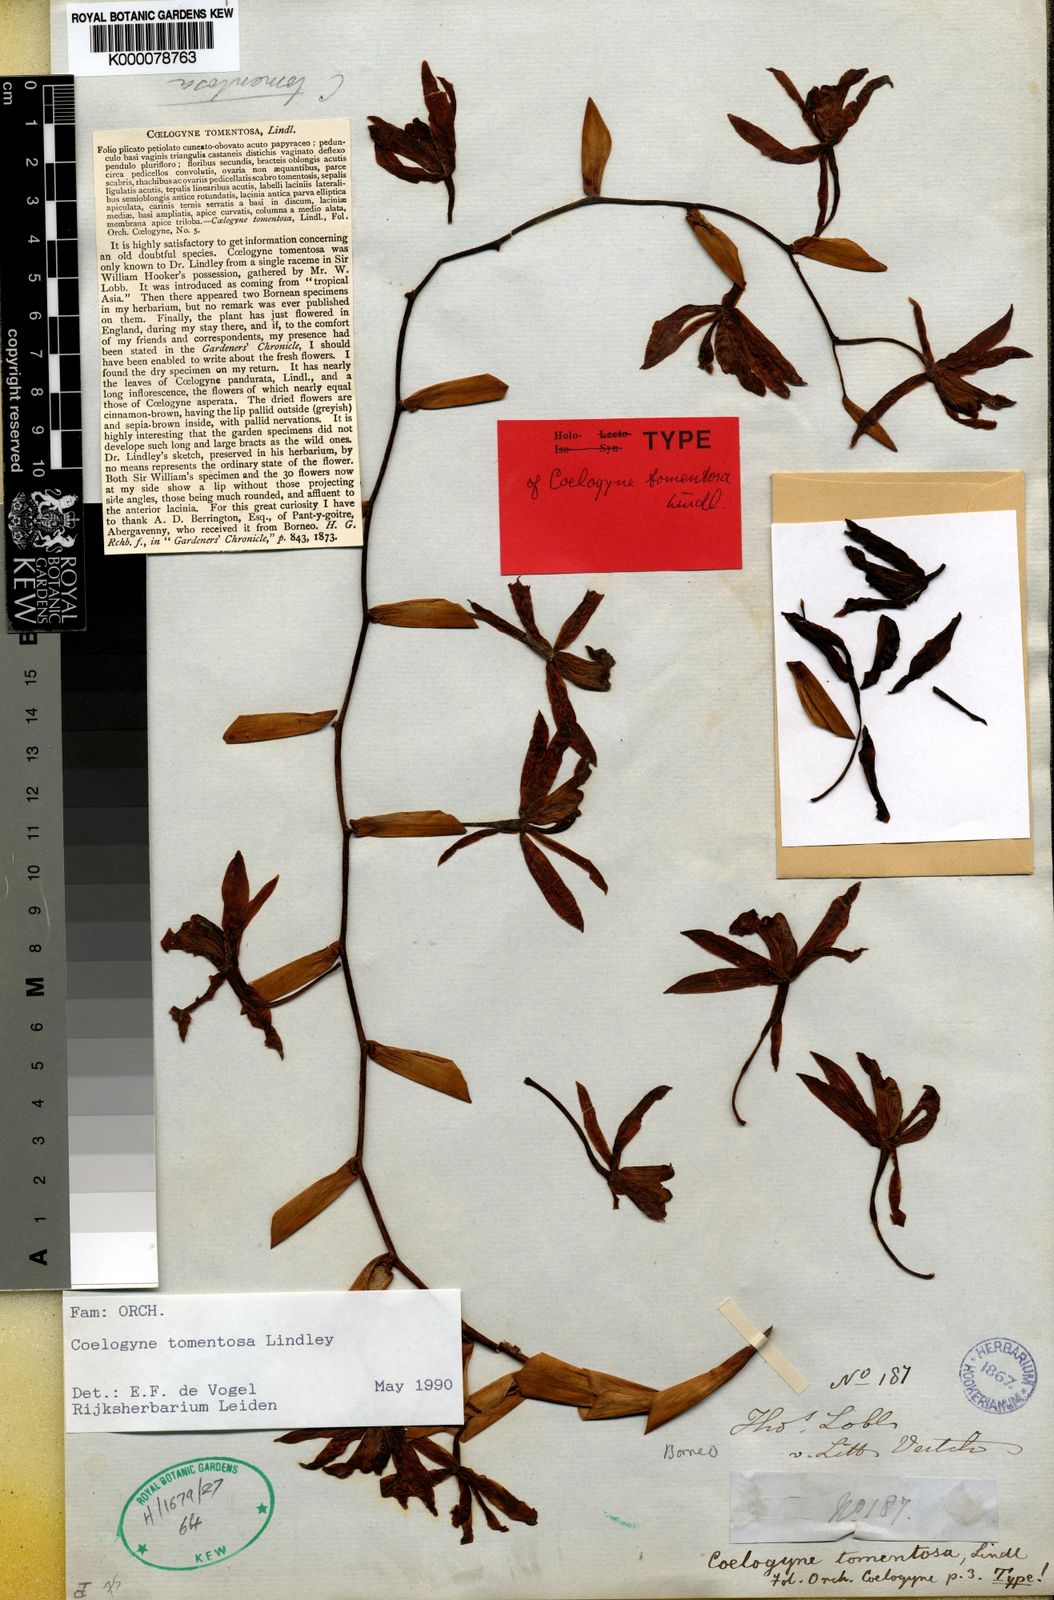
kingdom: Plantae
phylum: Tracheophyta
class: Liliopsida
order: Asparagales
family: Orchidaceae
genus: Coelogyne
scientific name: Coelogyne tomentosa
